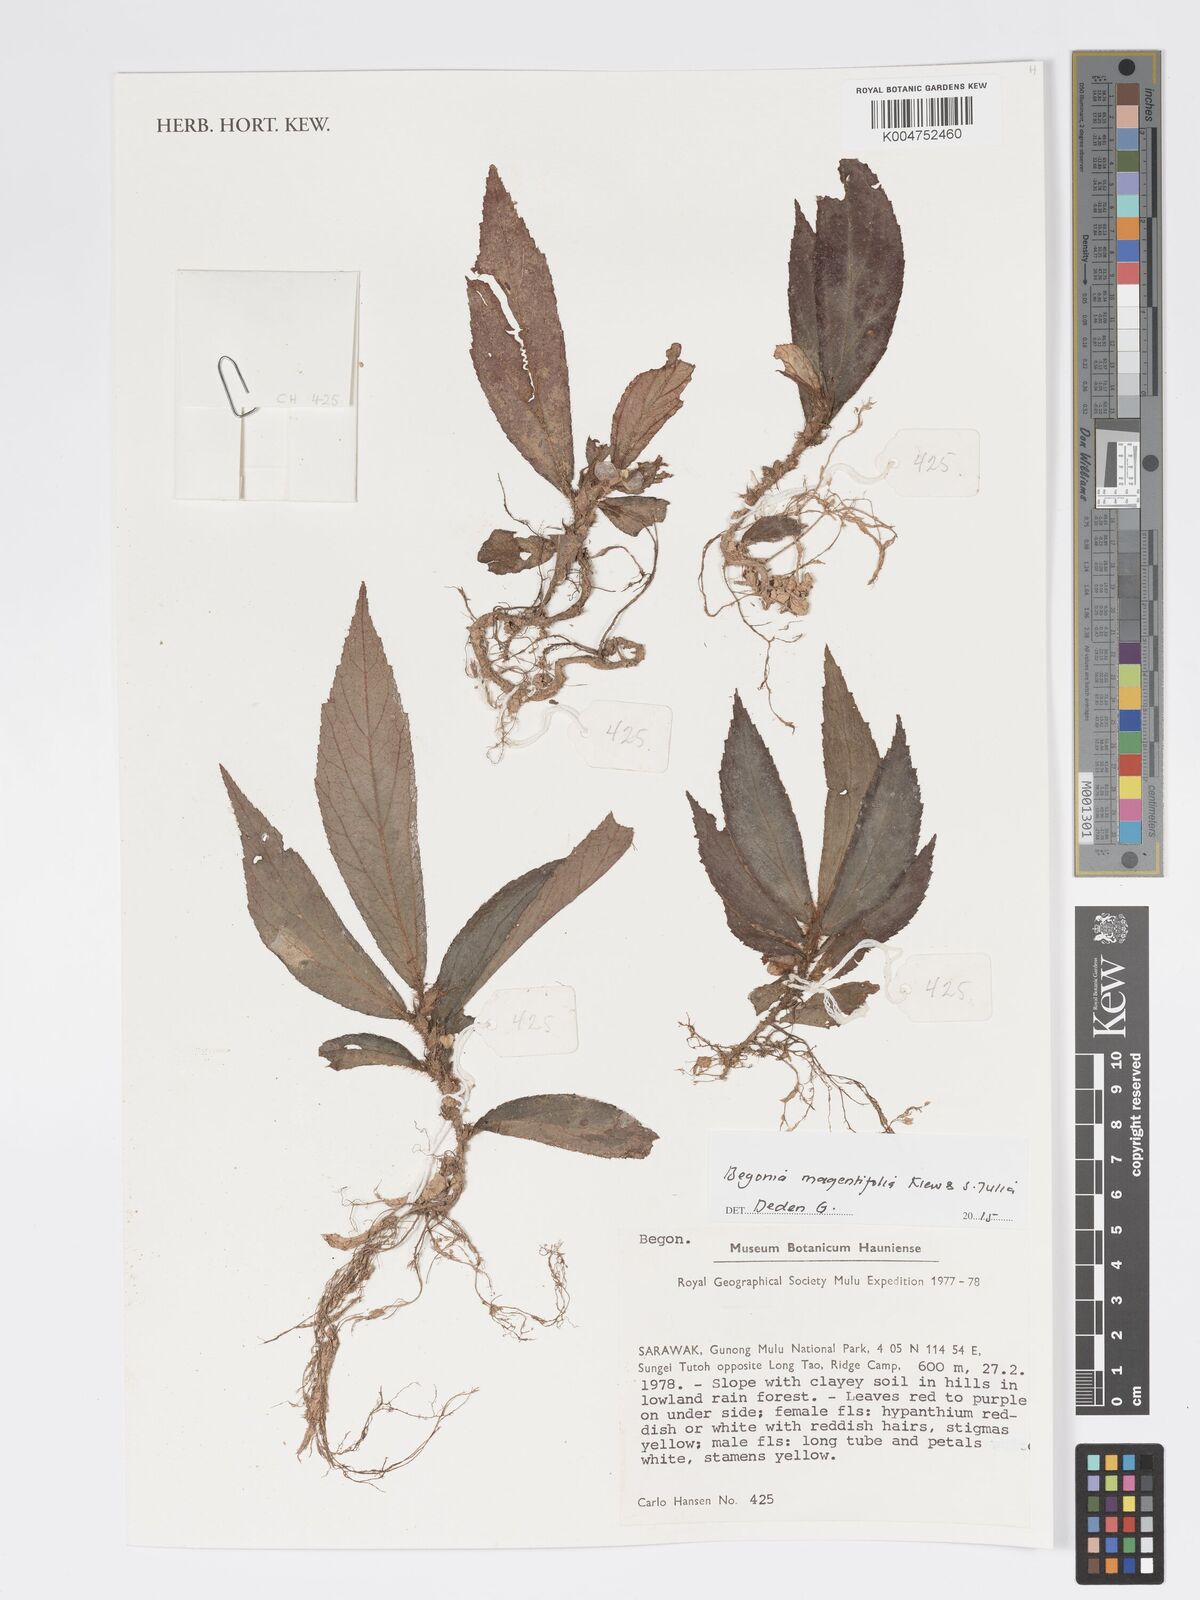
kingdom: Plantae
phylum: Tracheophyta
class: Magnoliopsida
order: Cucurbitales
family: Begoniaceae
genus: Begonia
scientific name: Begonia magentifolia
